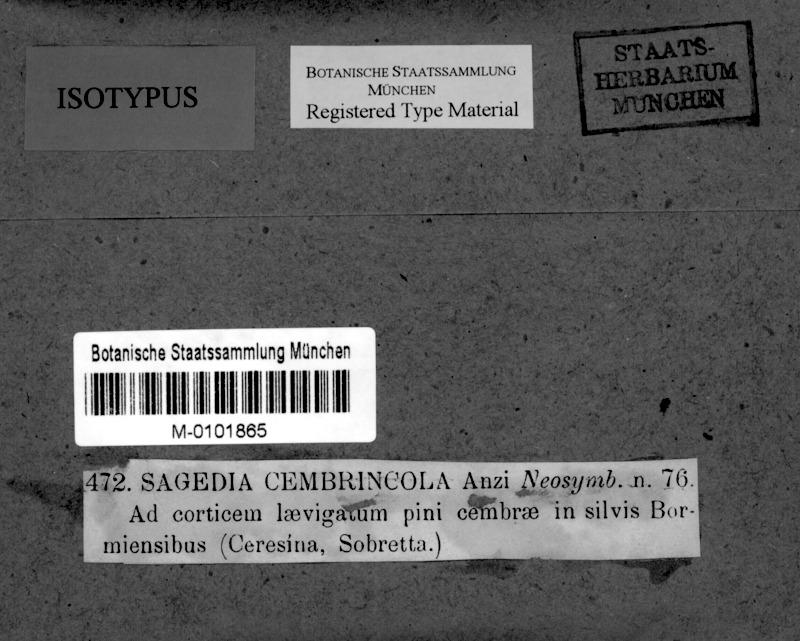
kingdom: Fungi
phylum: Ascomycota
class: Lecanoromycetes
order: Pertusariales
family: Pertusariaceae
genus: Porina
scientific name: Porina cembricola
